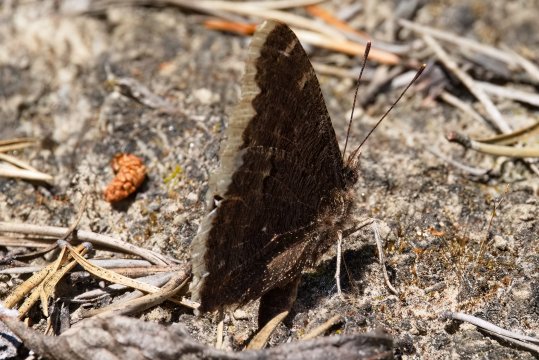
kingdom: Animalia
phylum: Arthropoda
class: Insecta
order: Lepidoptera
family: Nymphalidae
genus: Nymphalis
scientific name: Nymphalis antiopa
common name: Mourning Cloak
